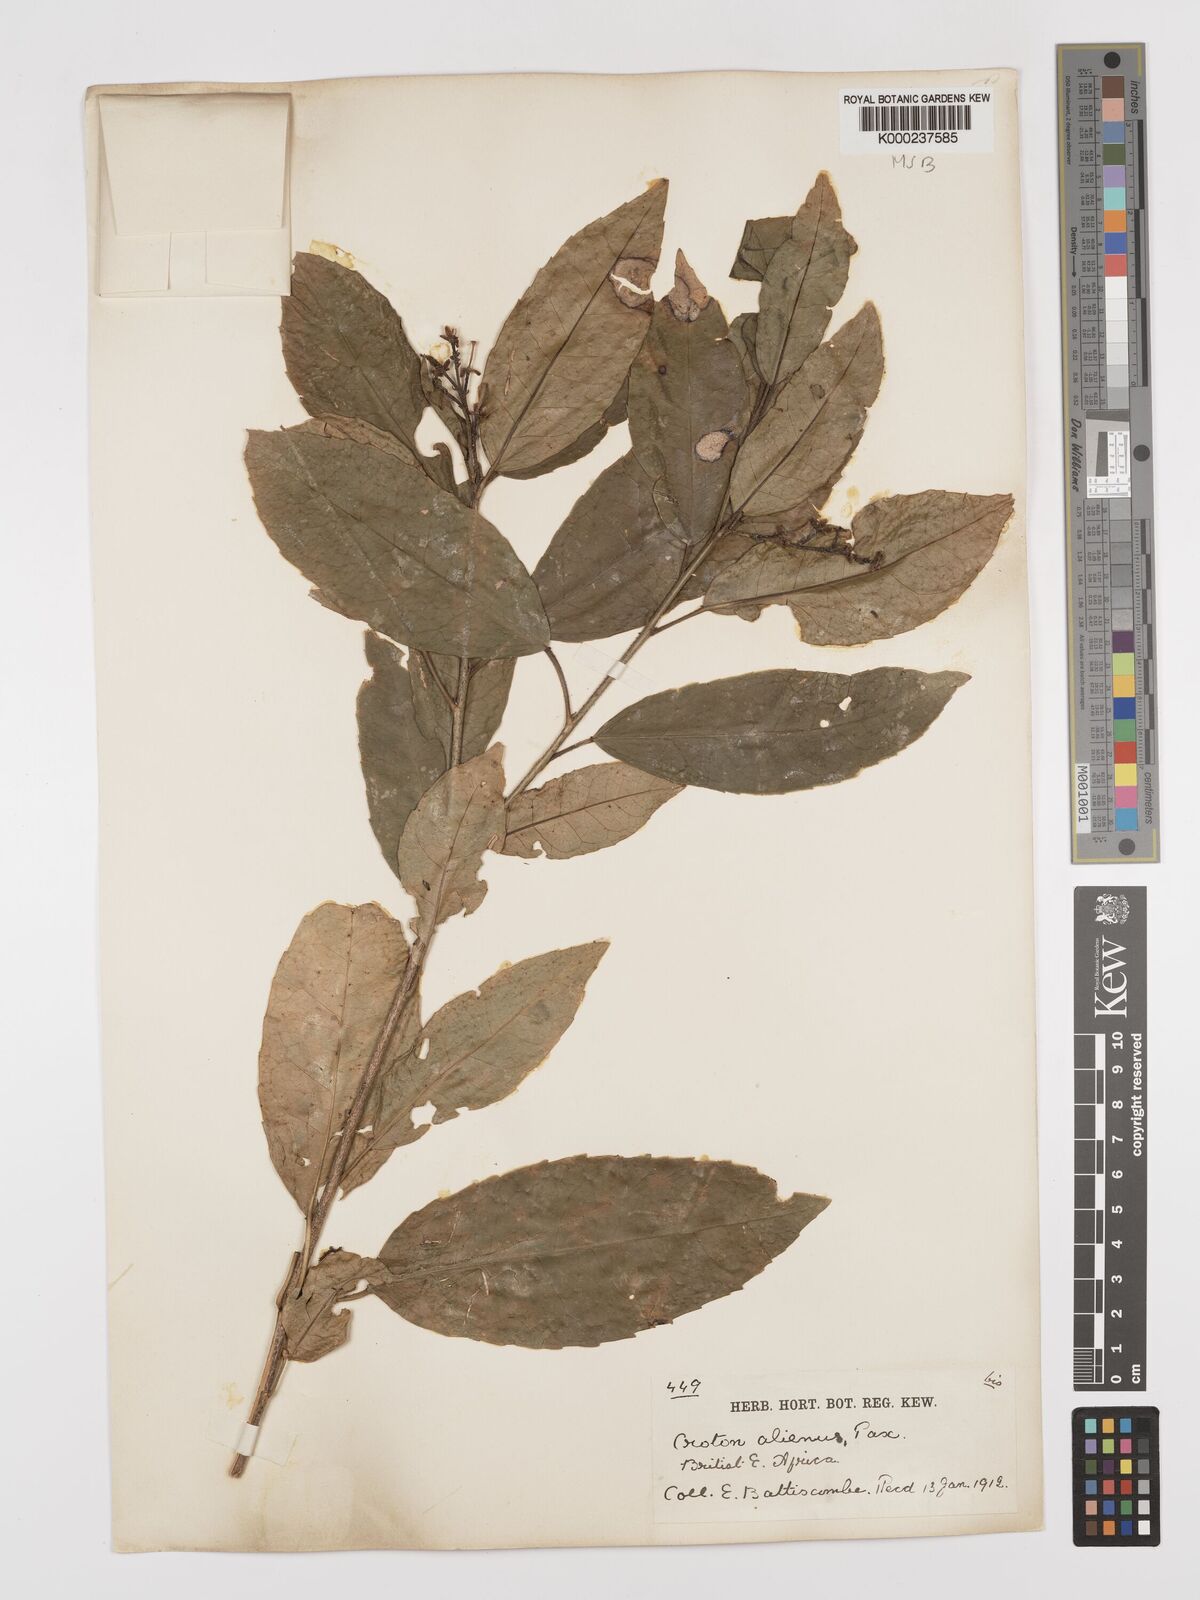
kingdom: Plantae
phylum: Tracheophyta
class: Magnoliopsida
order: Malpighiales
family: Euphorbiaceae
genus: Croton
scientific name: Croton alienus
